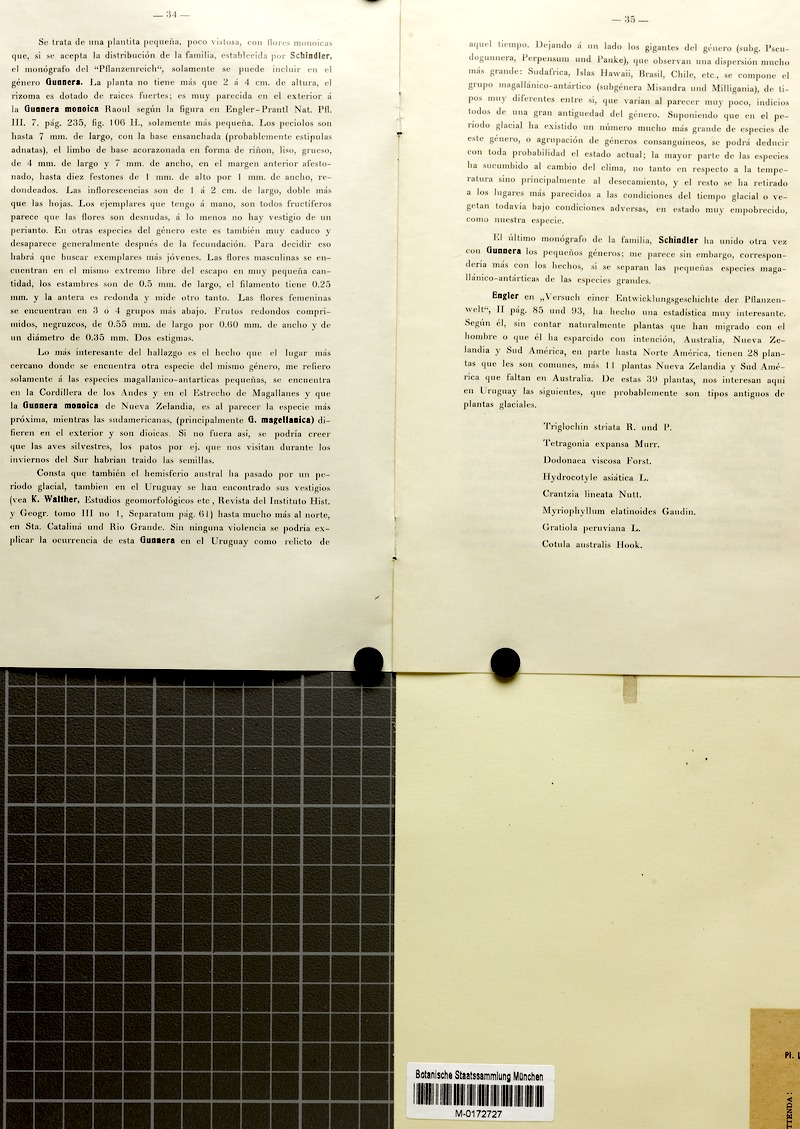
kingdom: Plantae
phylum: Tracheophyta
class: Magnoliopsida
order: Gunnerales
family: Gunneraceae
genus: Gunnera
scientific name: Gunnera herteri
